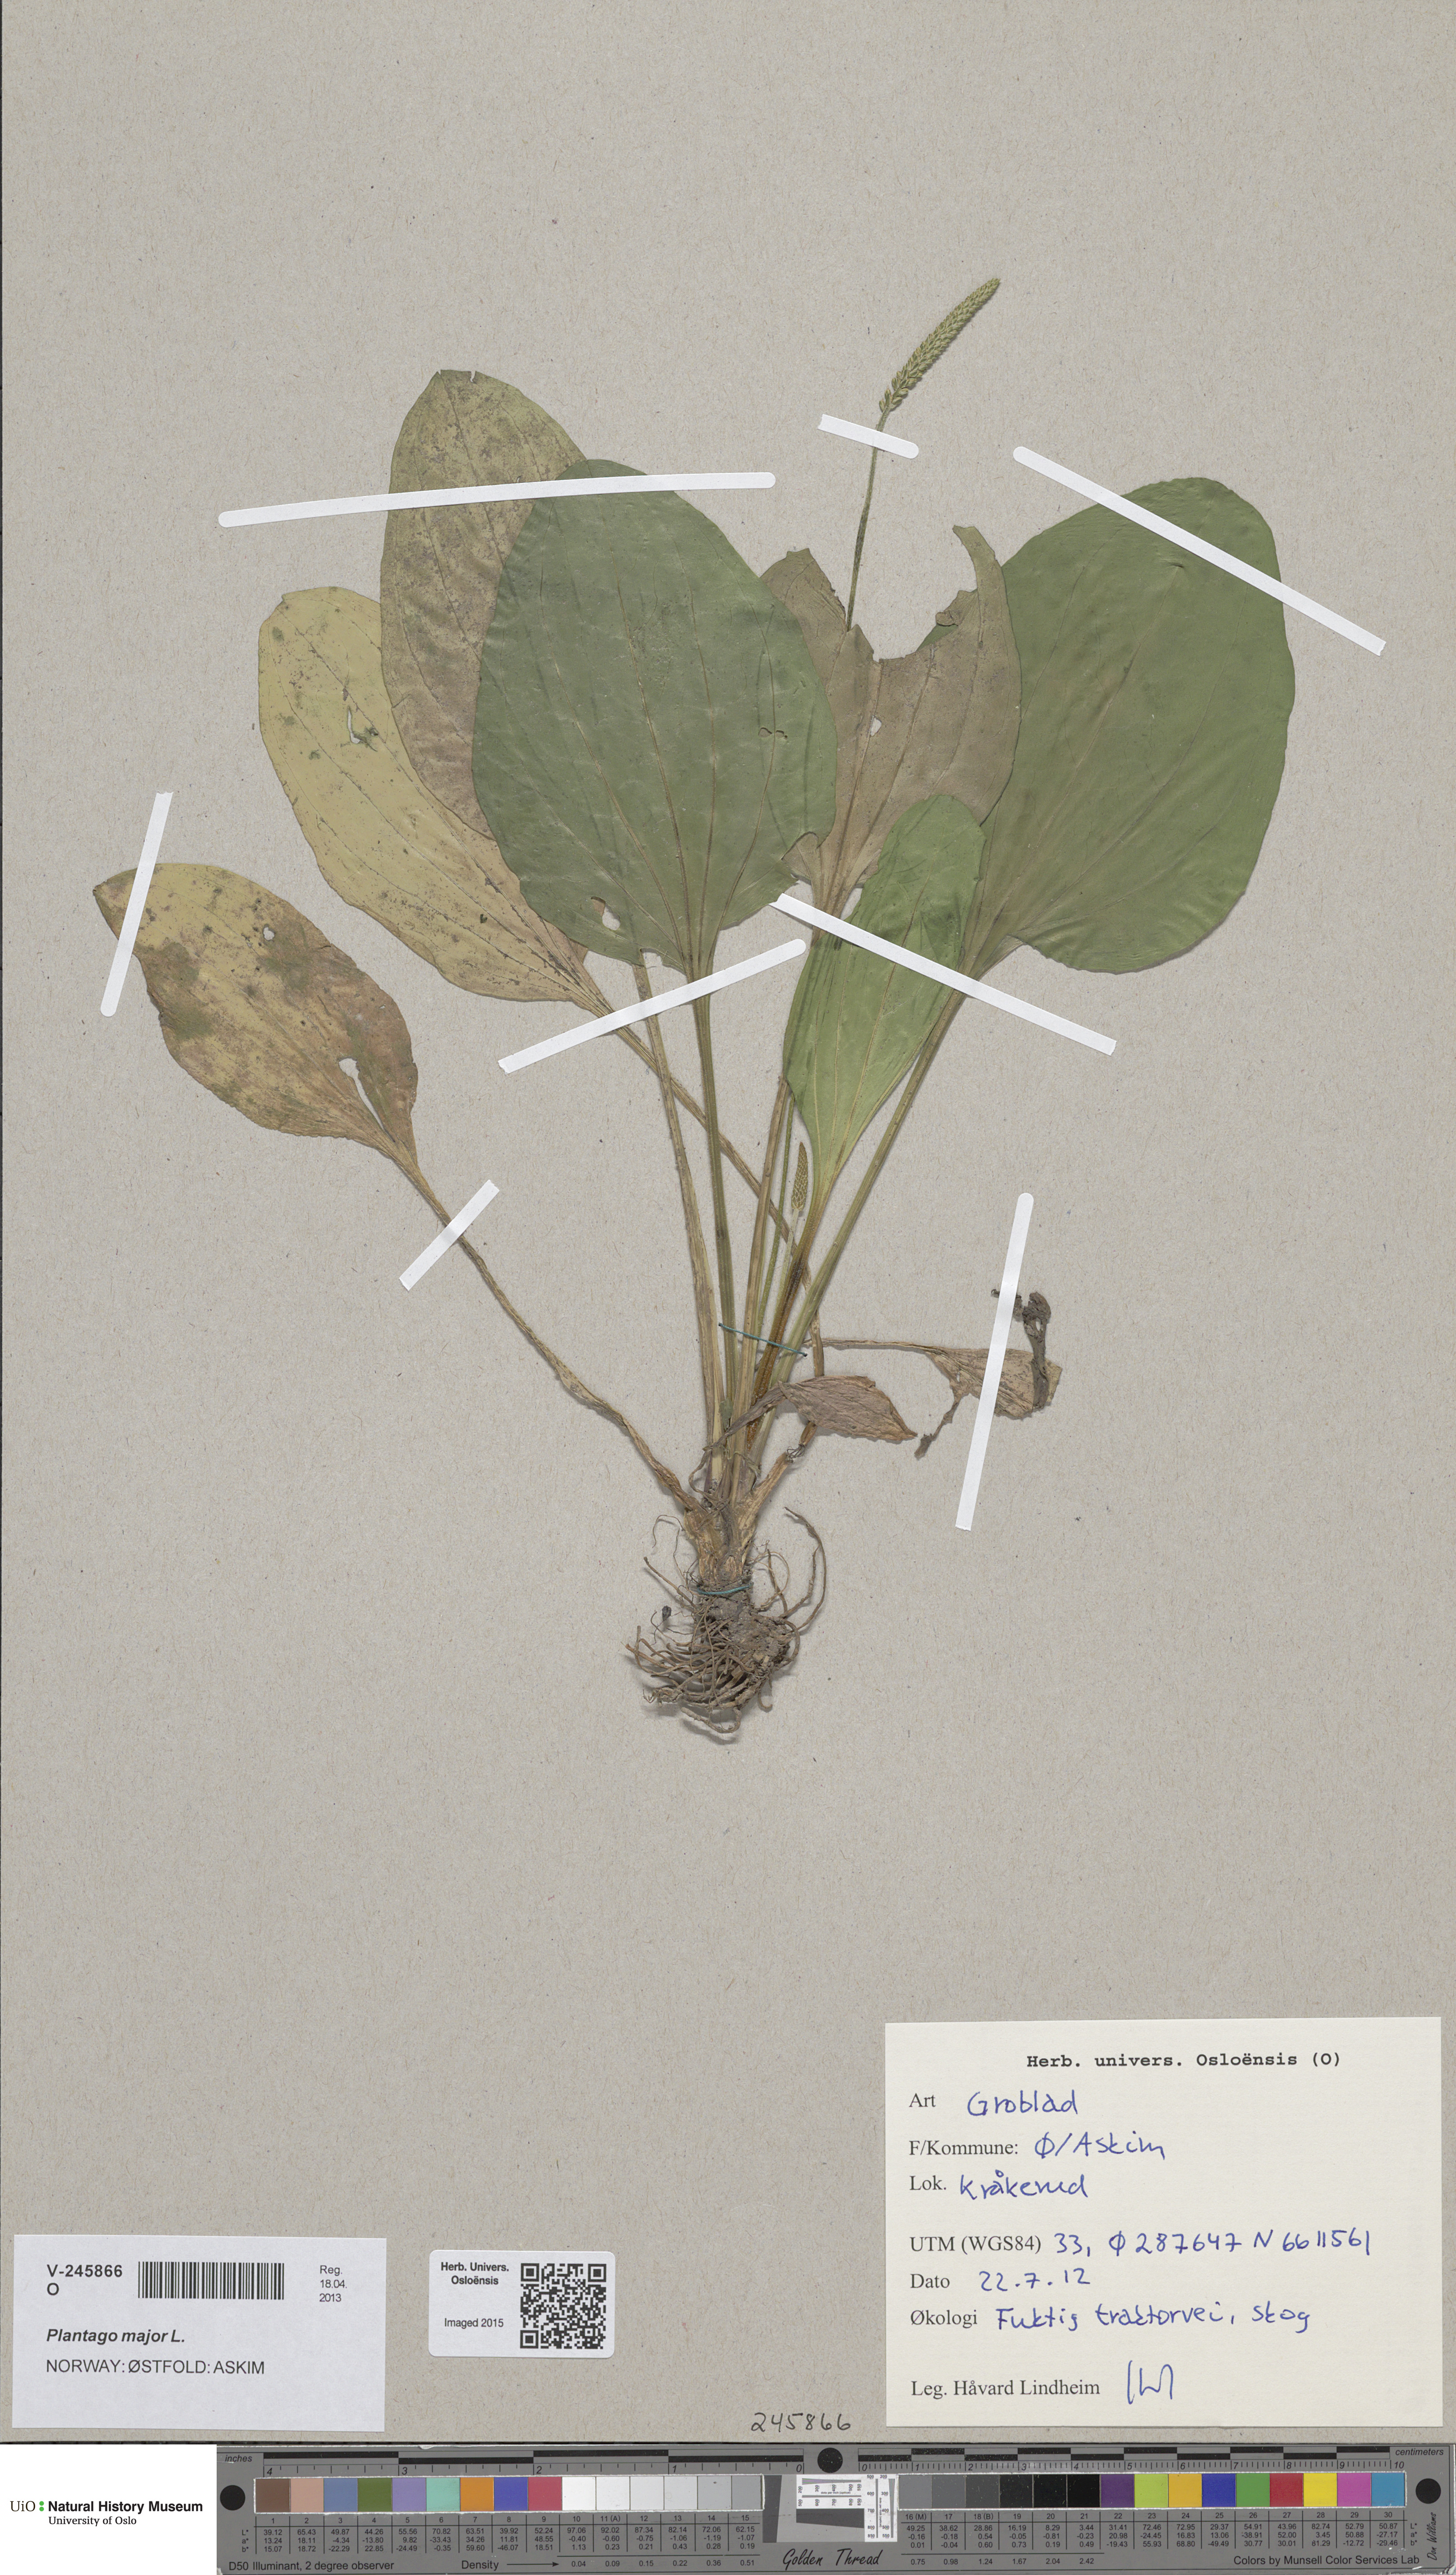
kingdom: Plantae
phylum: Tracheophyta
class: Magnoliopsida
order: Lamiales
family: Plantaginaceae
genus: Plantago
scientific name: Plantago major
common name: Common plantain
